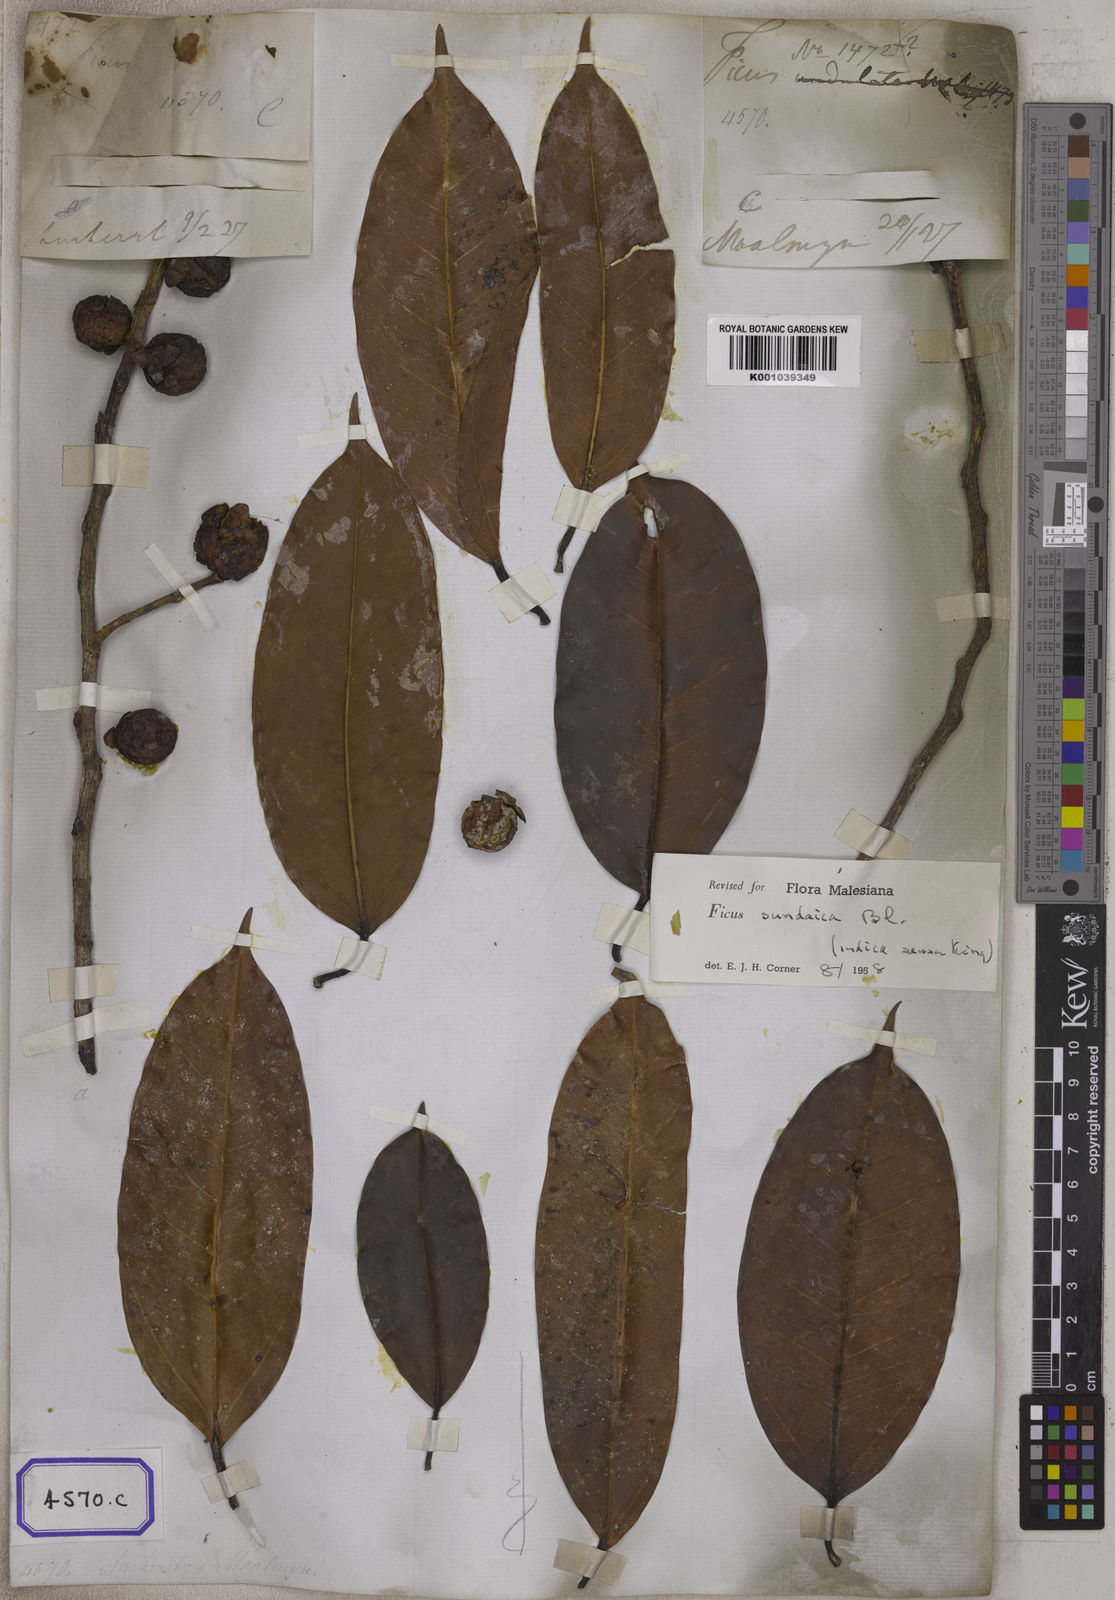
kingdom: Plantae
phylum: Tracheophyta
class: Magnoliopsida
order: Rosales
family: Moraceae
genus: Ficus
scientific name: Ficus
